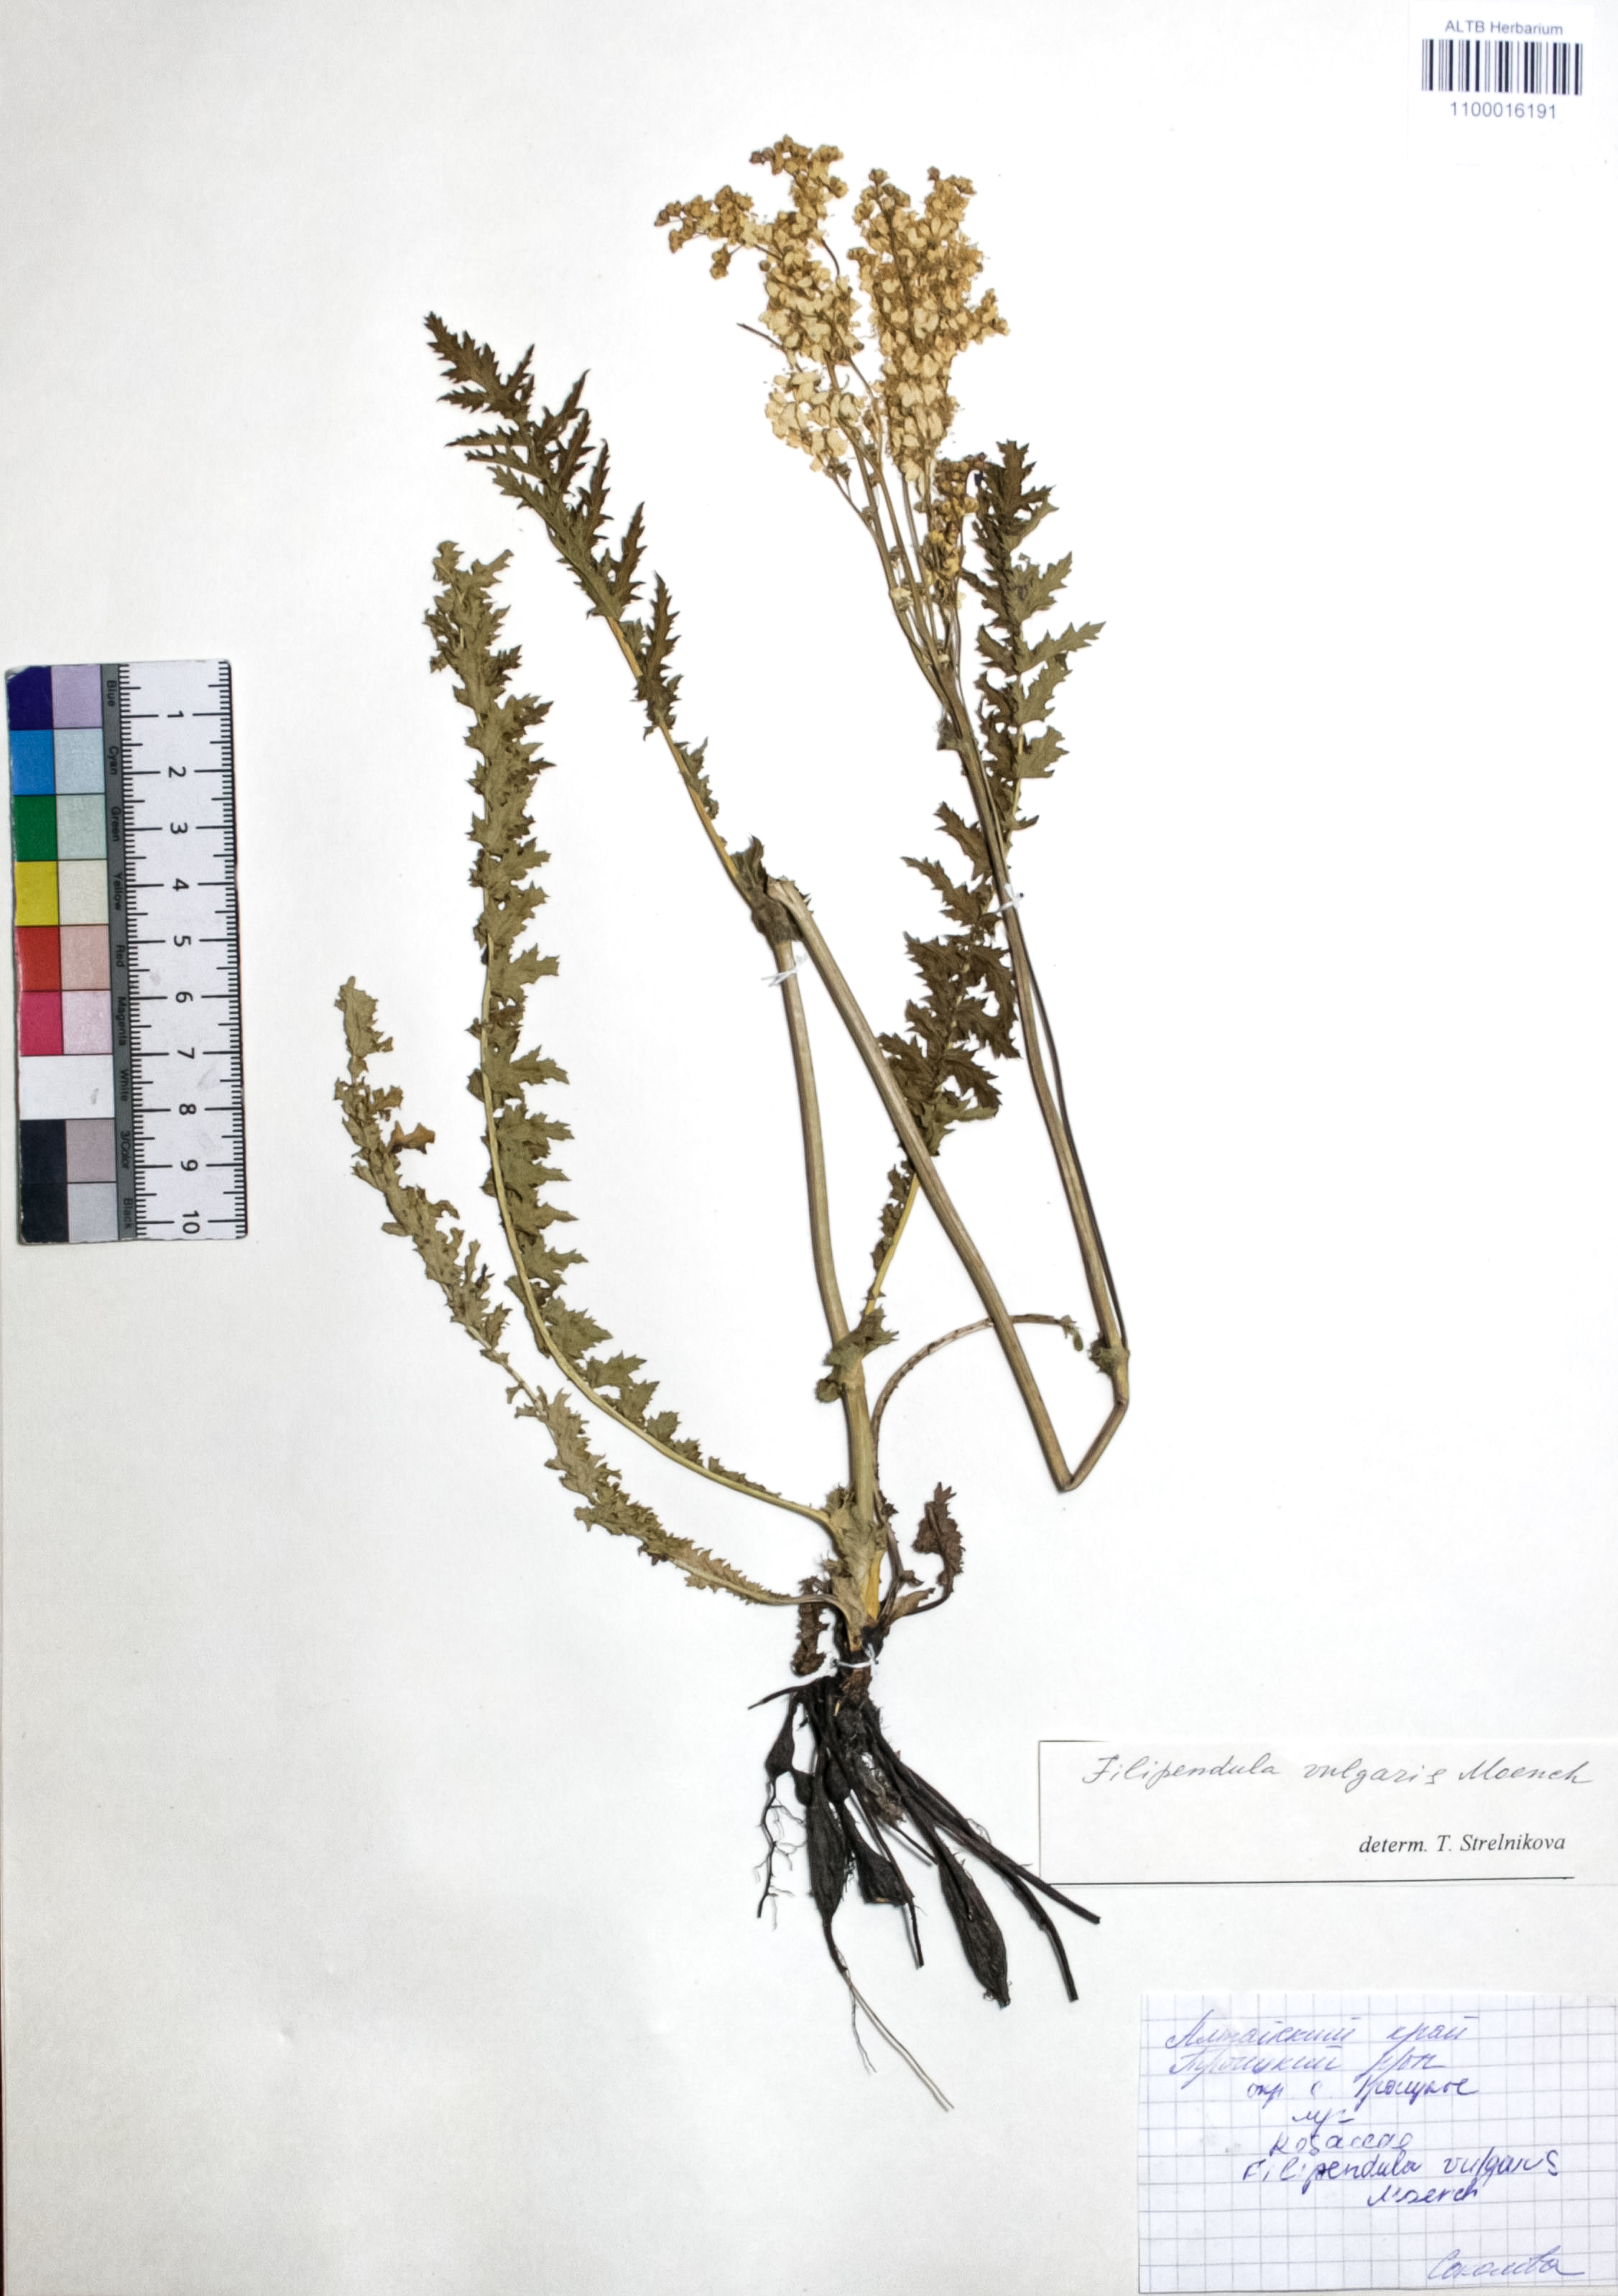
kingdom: Plantae
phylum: Tracheophyta
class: Magnoliopsida
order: Rosales
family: Rosaceae
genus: Filipendula
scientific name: Filipendula vulgaris
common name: Dropwort
